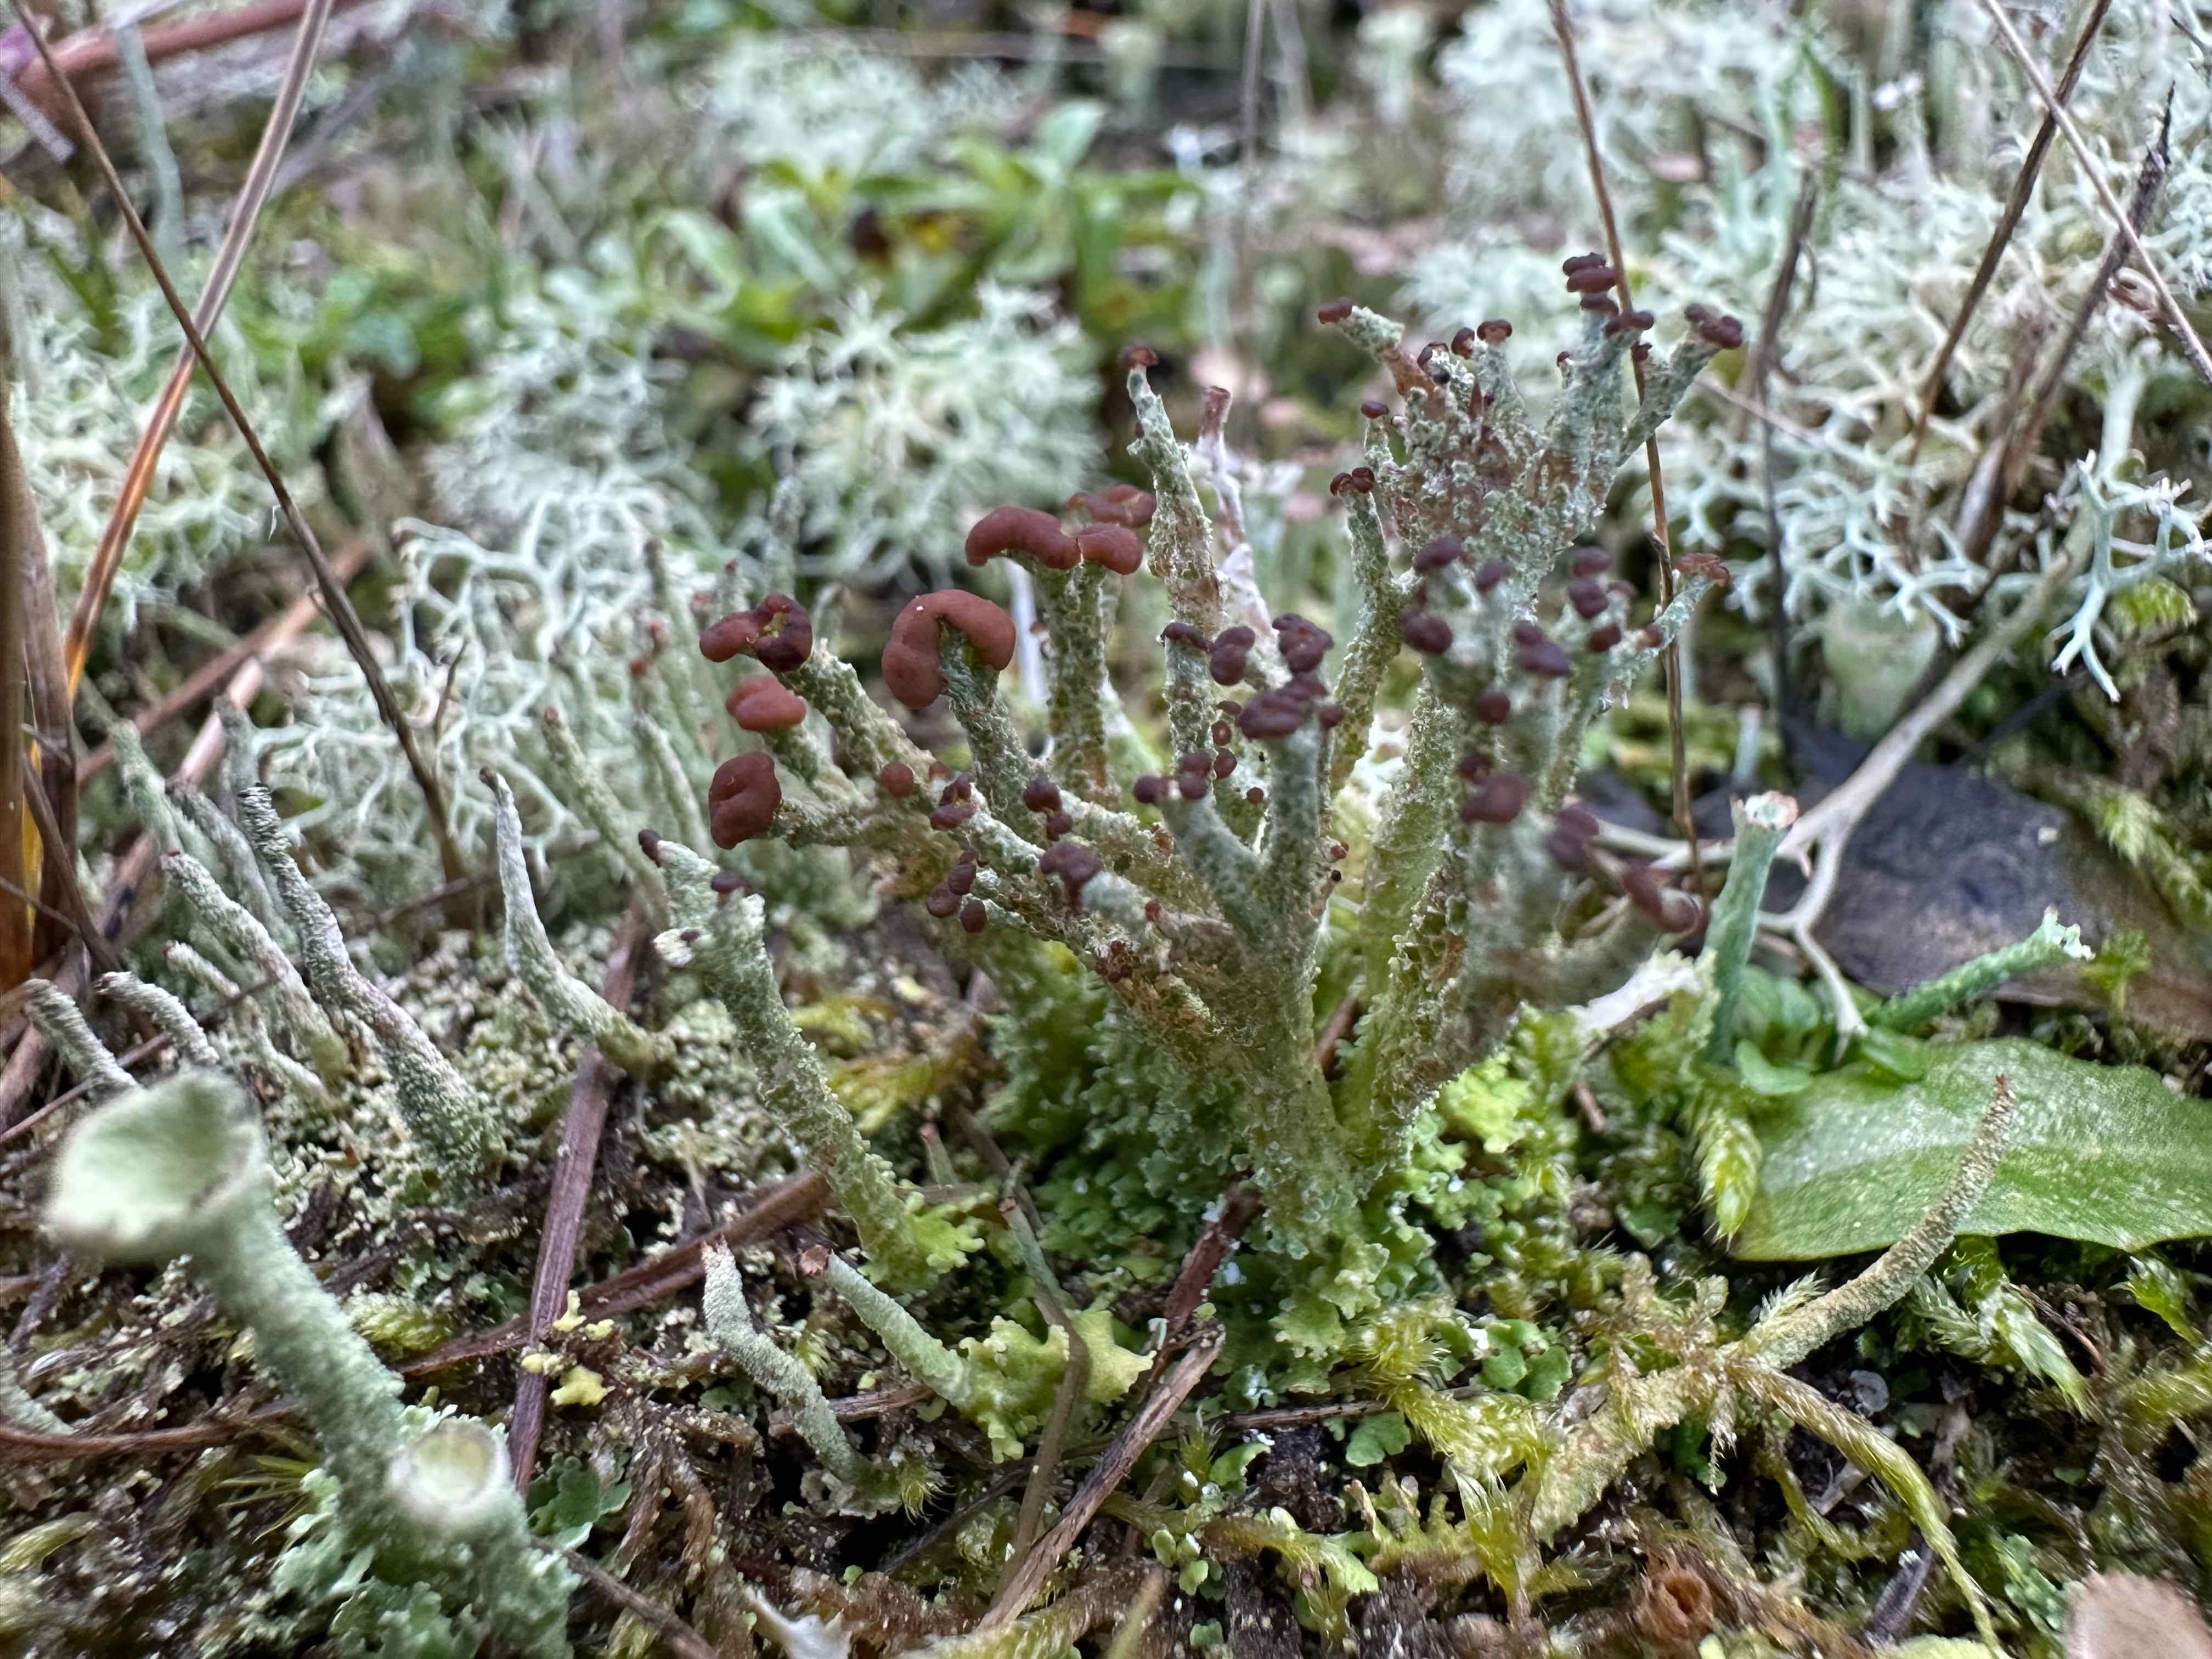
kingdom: Fungi
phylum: Ascomycota
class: Lecanoromycetes
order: Lecanorales
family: Cladoniaceae
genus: Cladonia
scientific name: Cladonia ramulosa
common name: kliddet bægerlav
